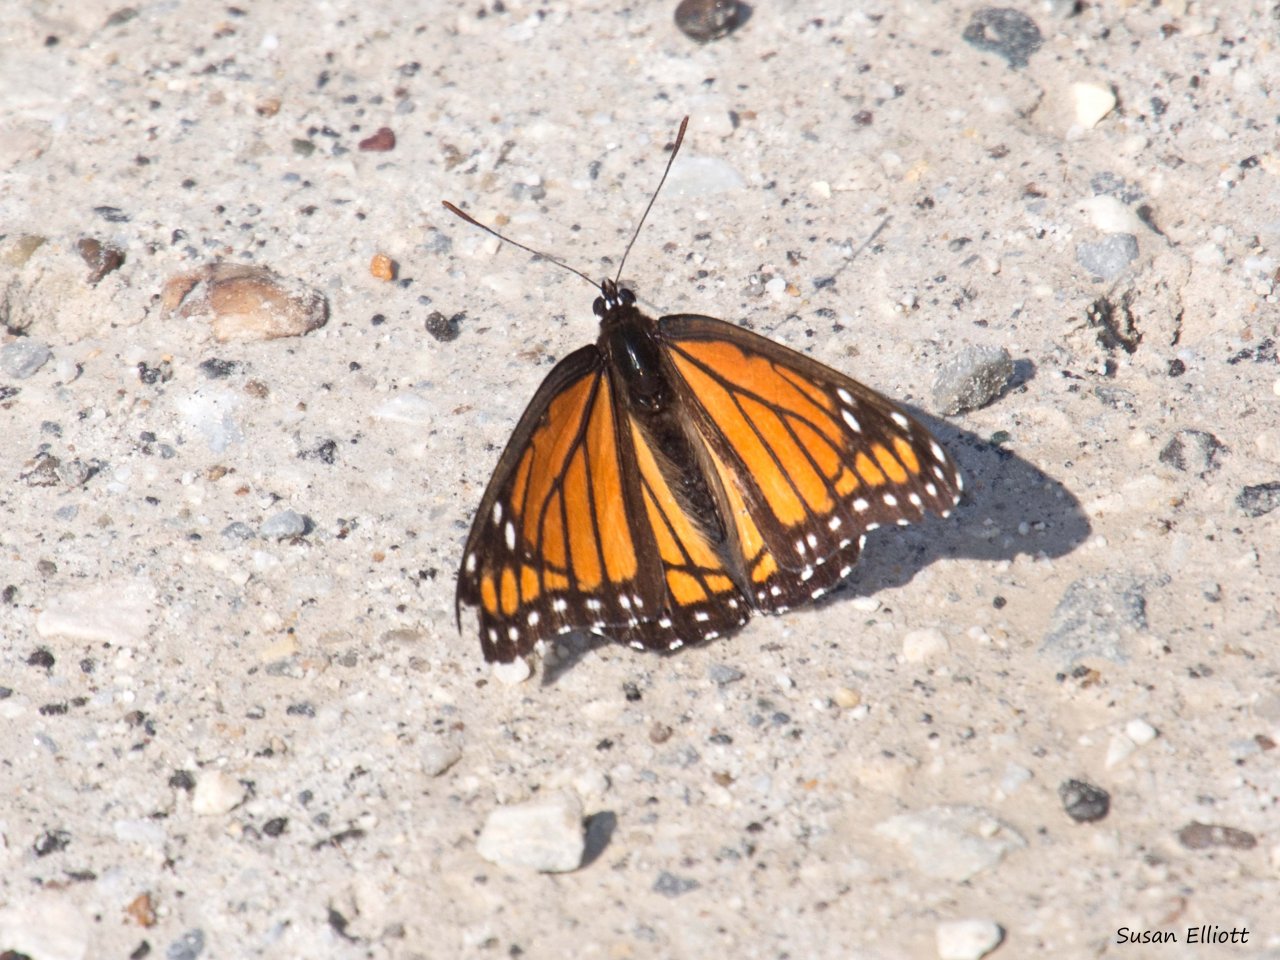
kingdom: Animalia
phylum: Arthropoda
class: Insecta
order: Lepidoptera
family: Nymphalidae
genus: Limenitis
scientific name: Limenitis archippus
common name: Viceroy
